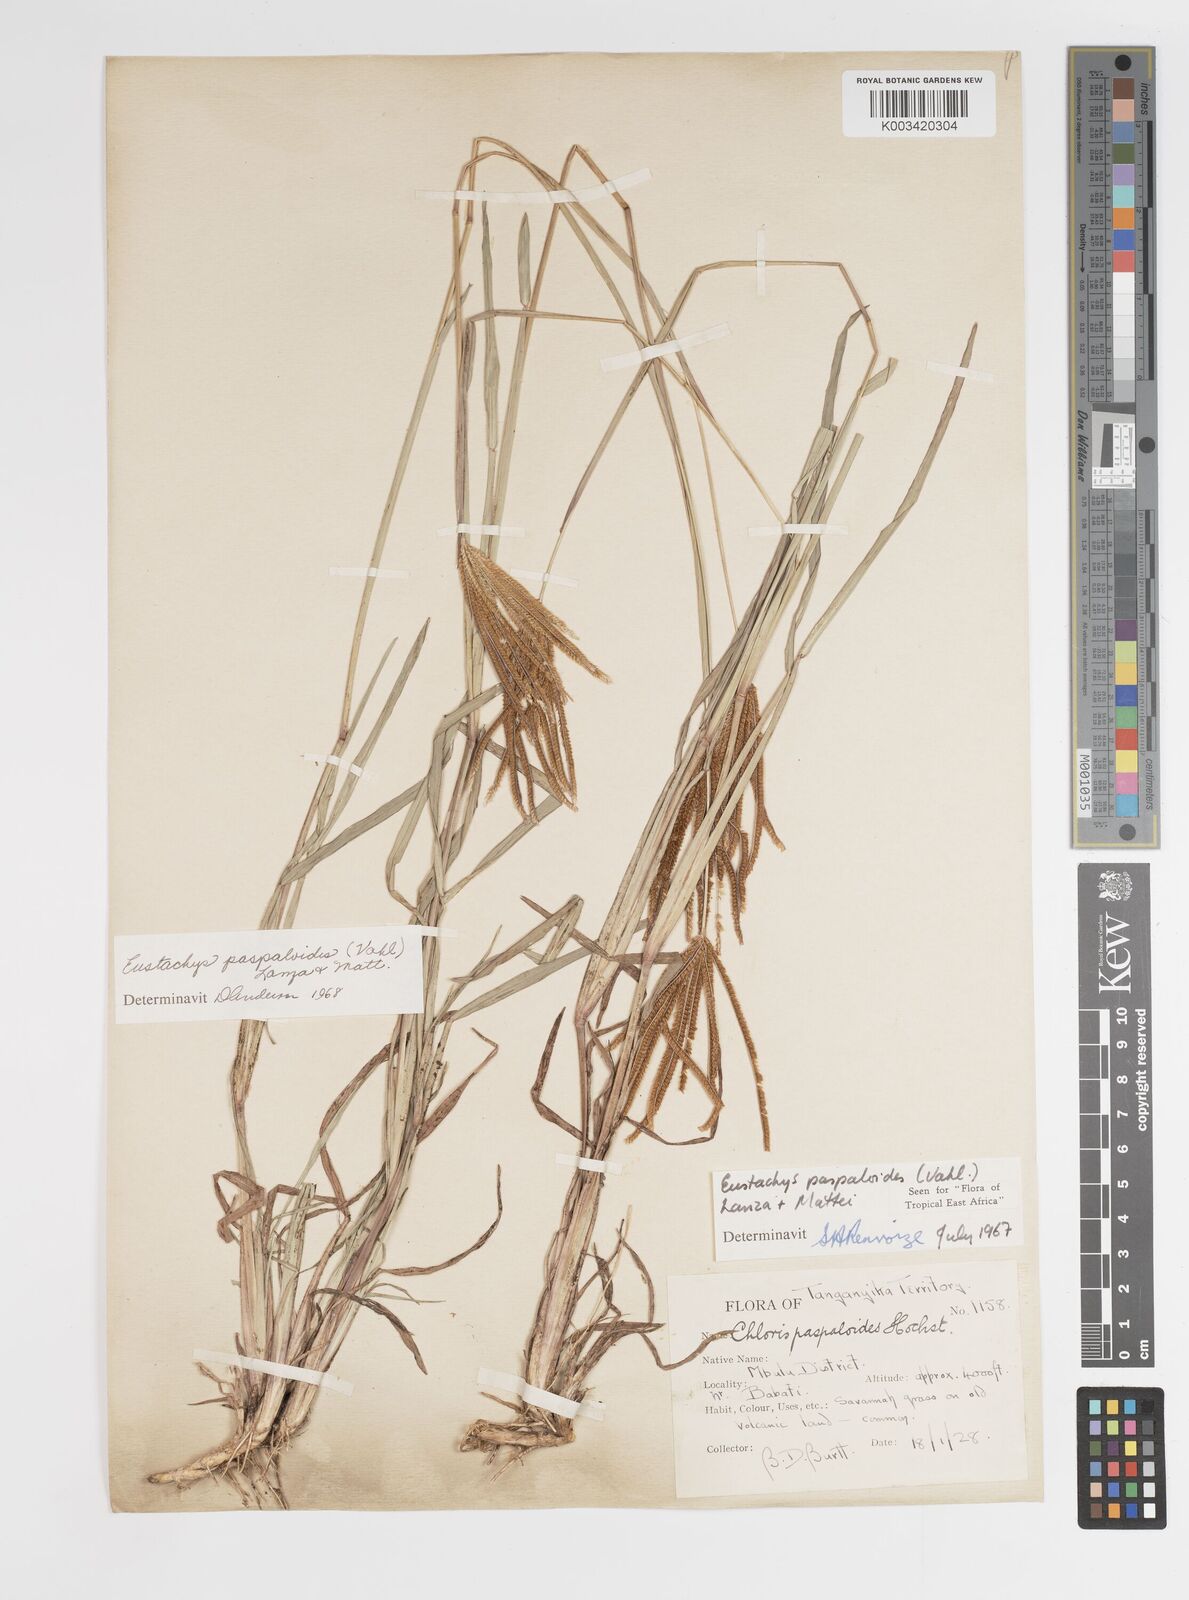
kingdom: Plantae
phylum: Tracheophyta
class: Liliopsida
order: Poales
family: Poaceae
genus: Eustachys
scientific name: Eustachys
